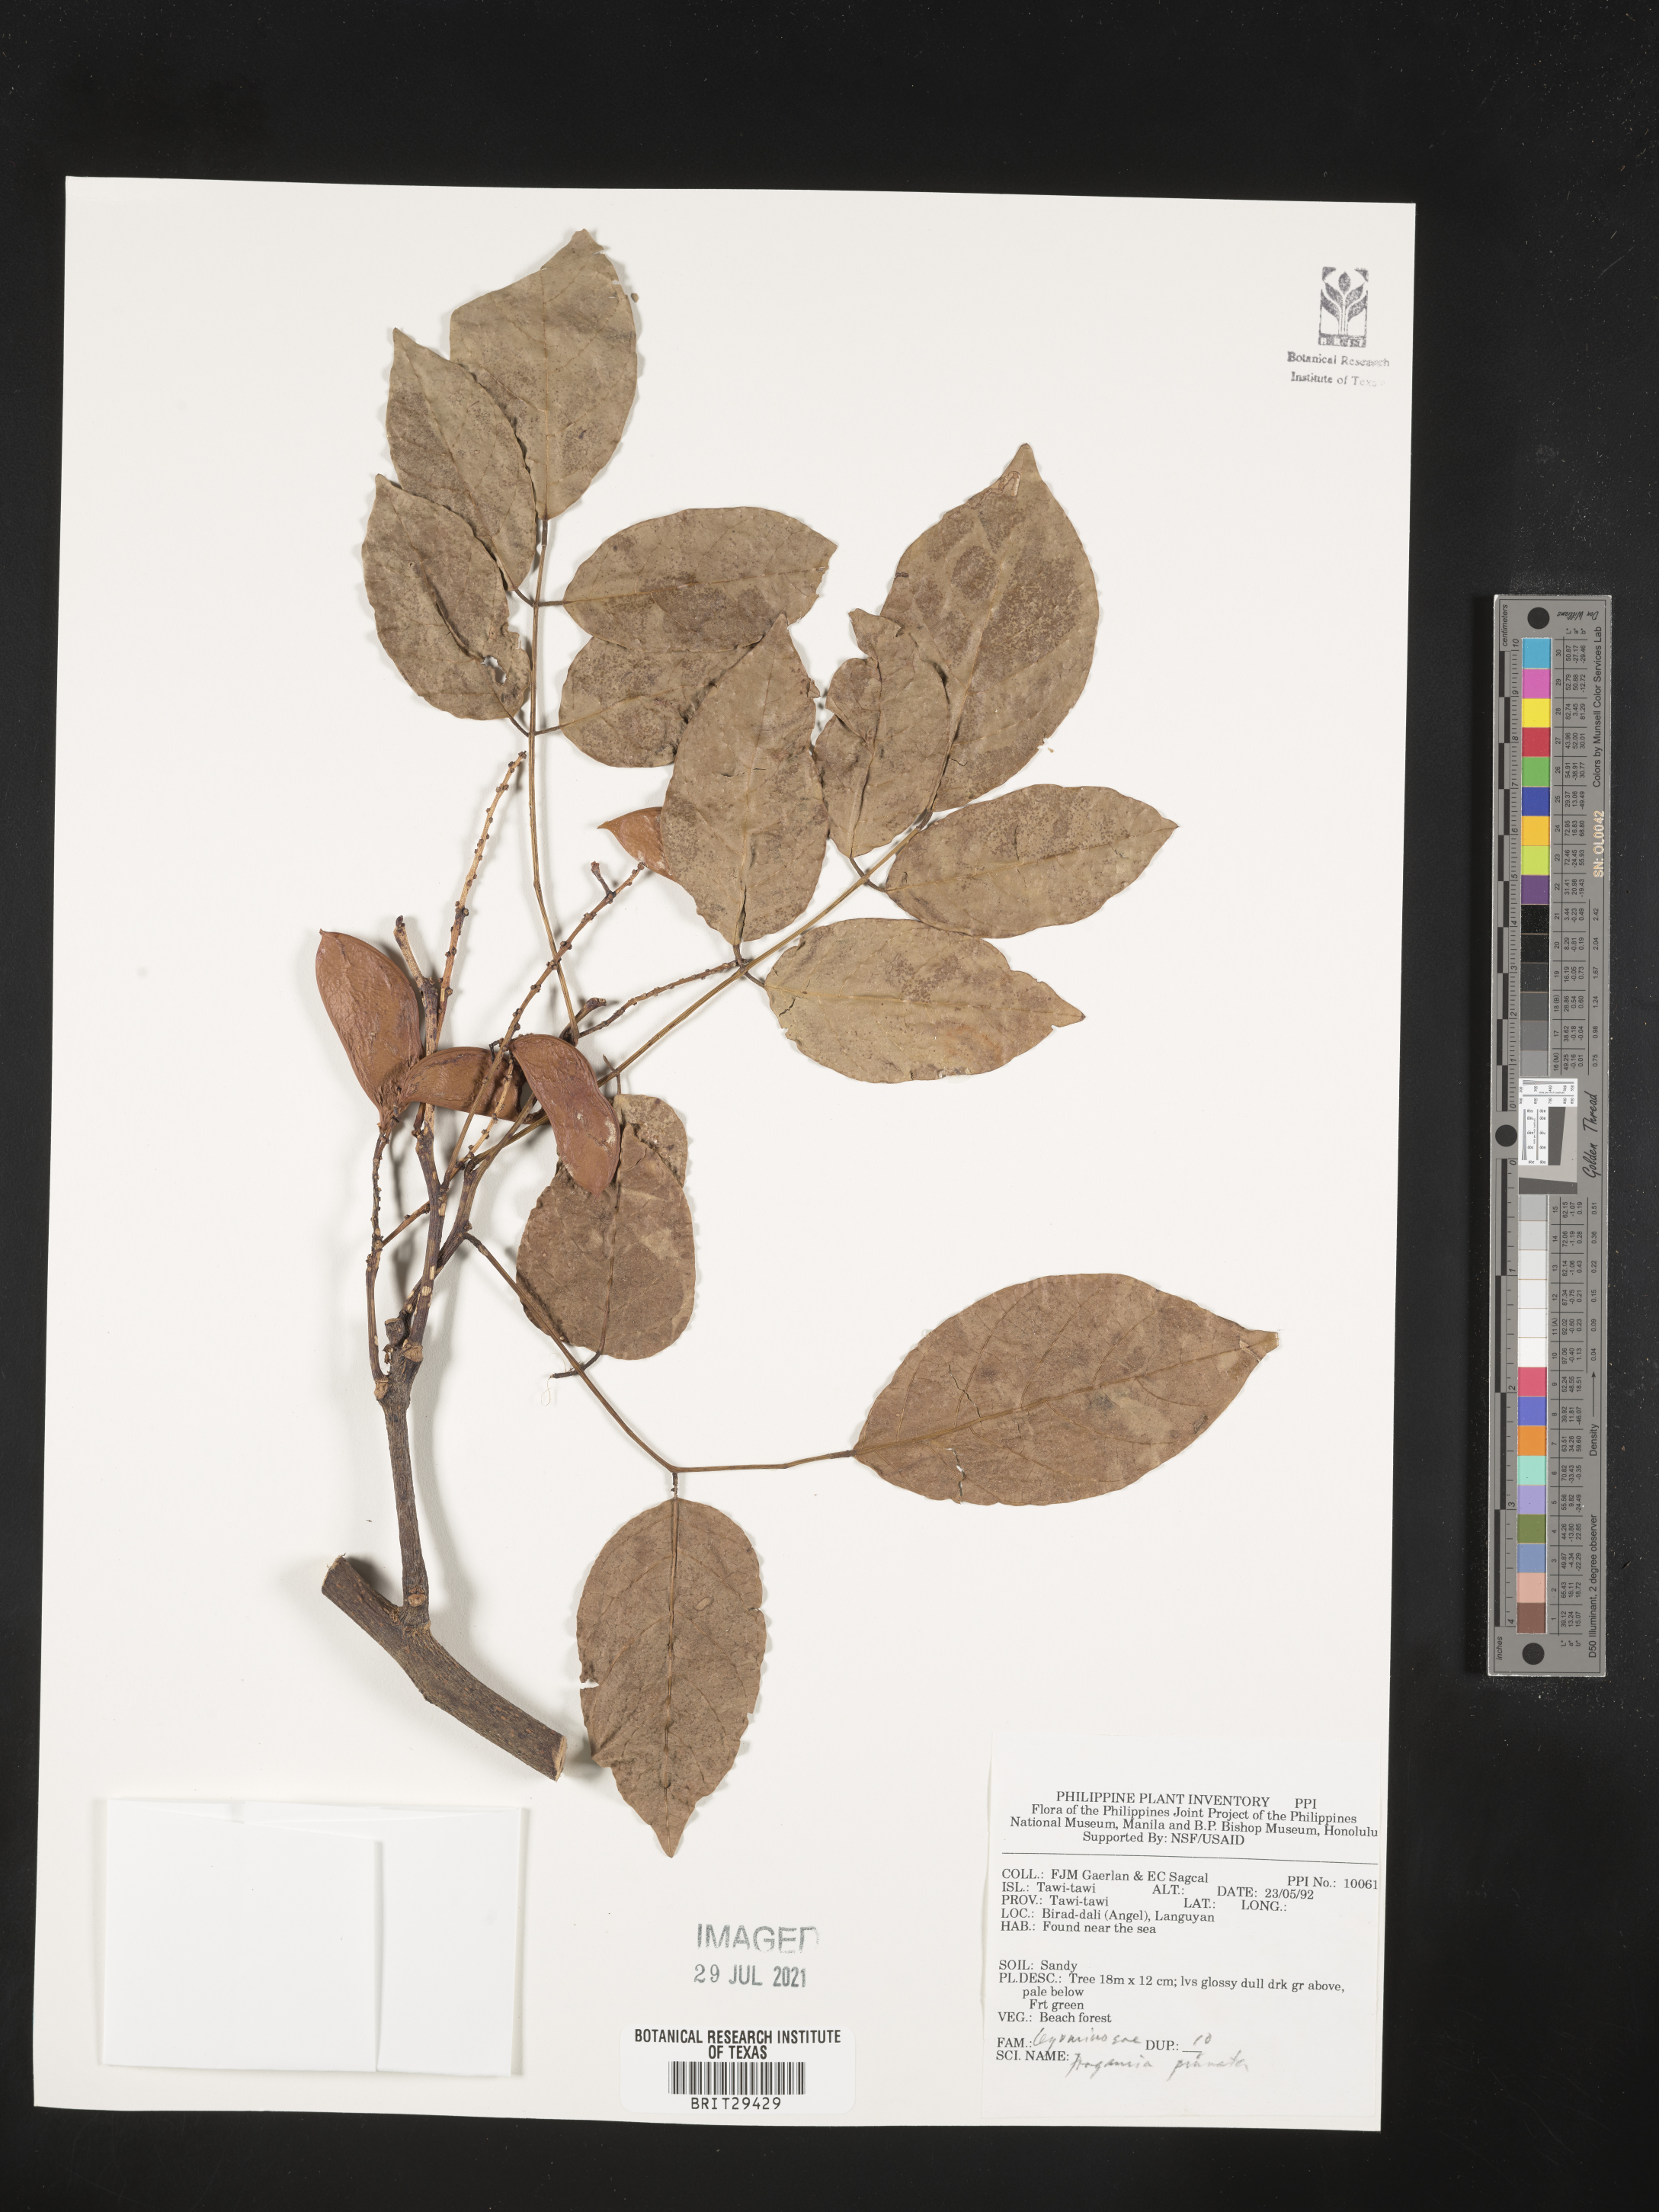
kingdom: Plantae
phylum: Tracheophyta
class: Magnoliopsida
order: Fabales
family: Fabaceae
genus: Pongamia
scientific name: Pongamia pinnata
